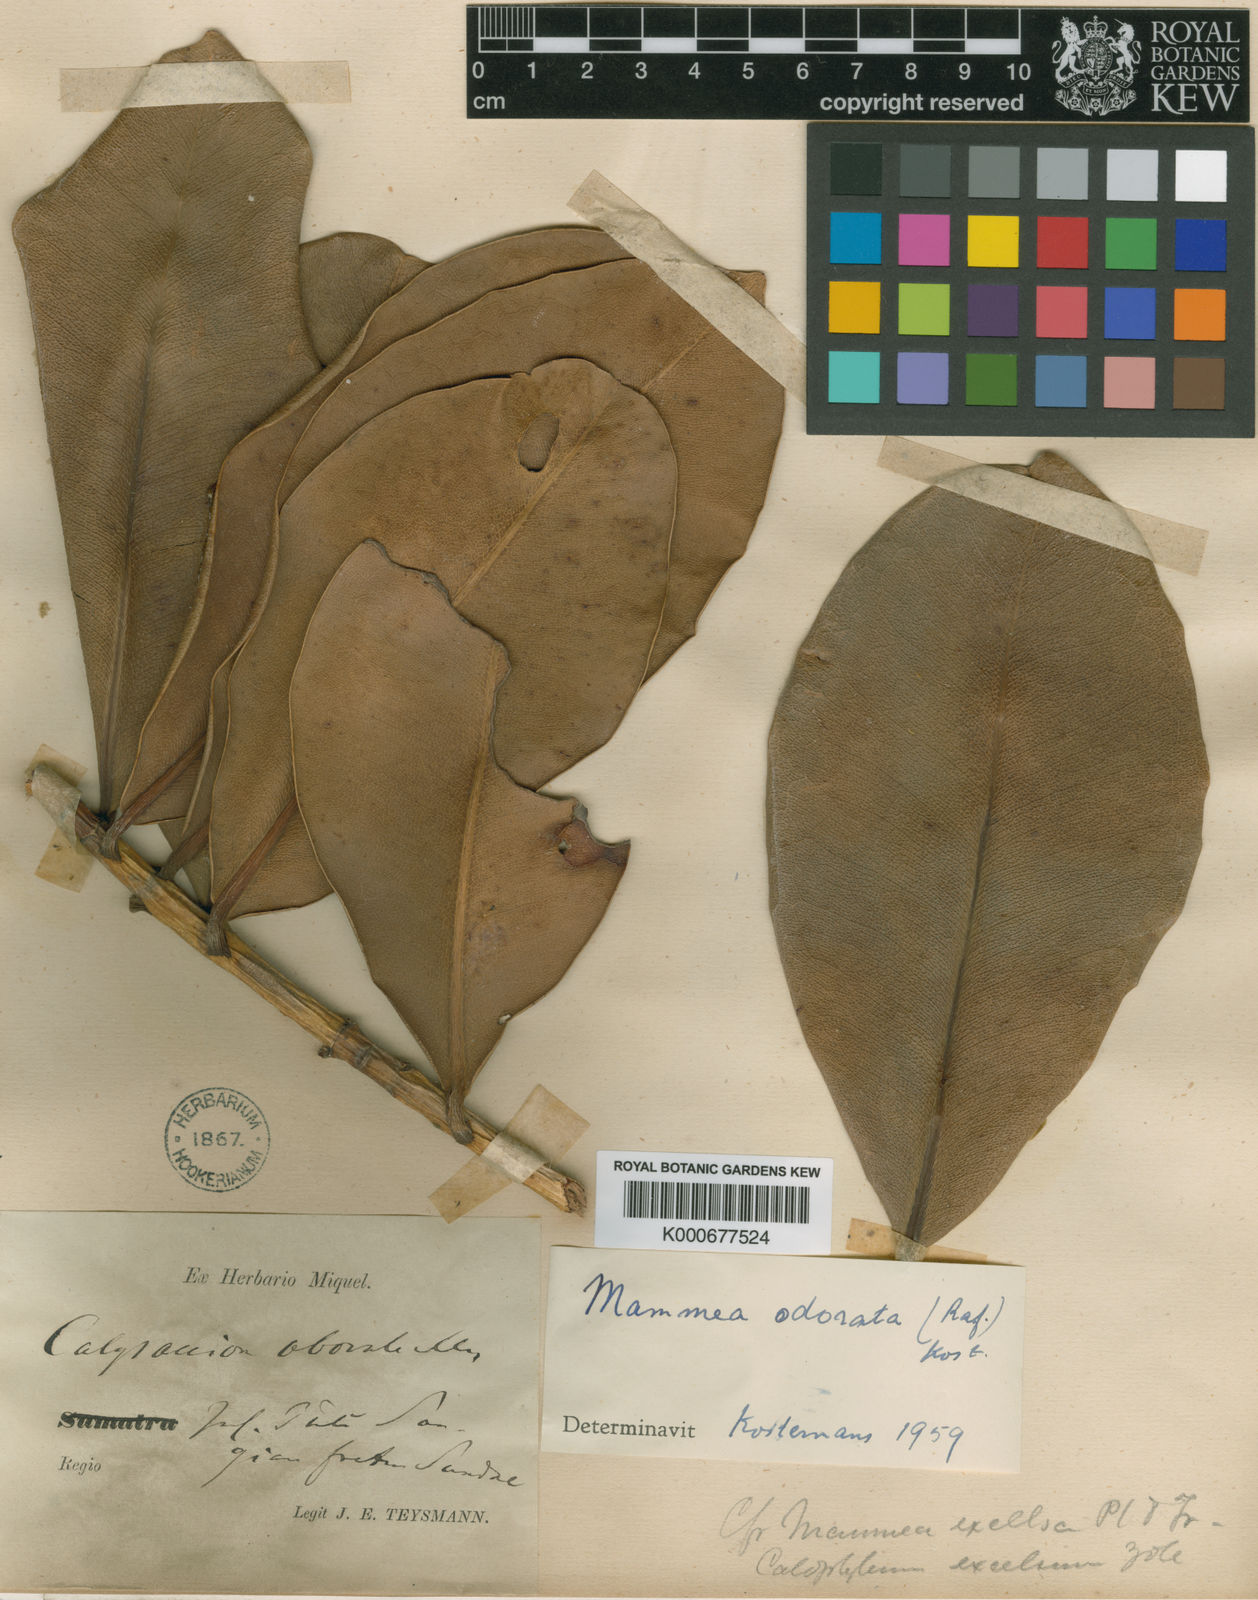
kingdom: Plantae
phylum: Tracheophyta
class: Magnoliopsida
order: Malpighiales
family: Calophyllaceae
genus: Mammea
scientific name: Mammea odorata
